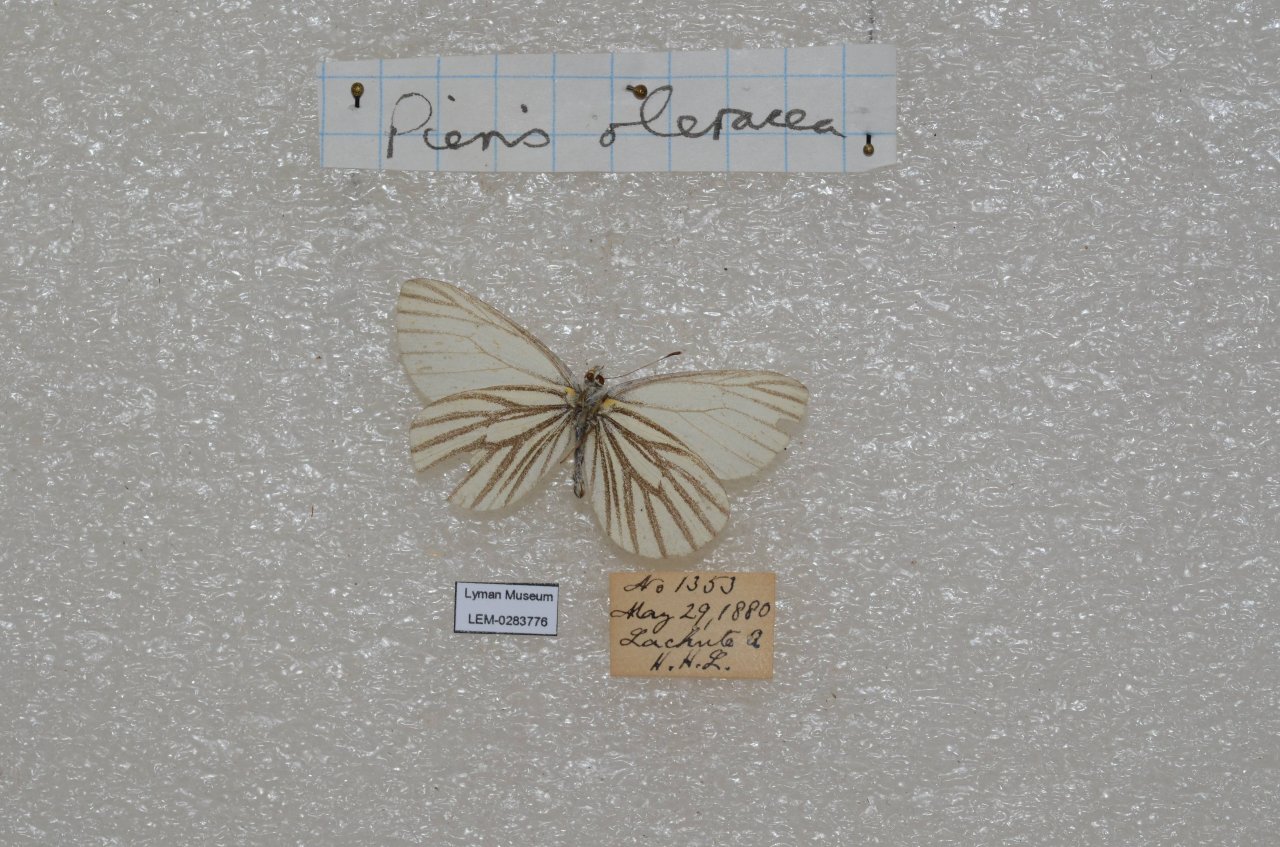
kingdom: Animalia
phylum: Arthropoda
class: Insecta
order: Lepidoptera
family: Pieridae
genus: Pieris
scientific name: Pieris oleracea
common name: Mustard White
